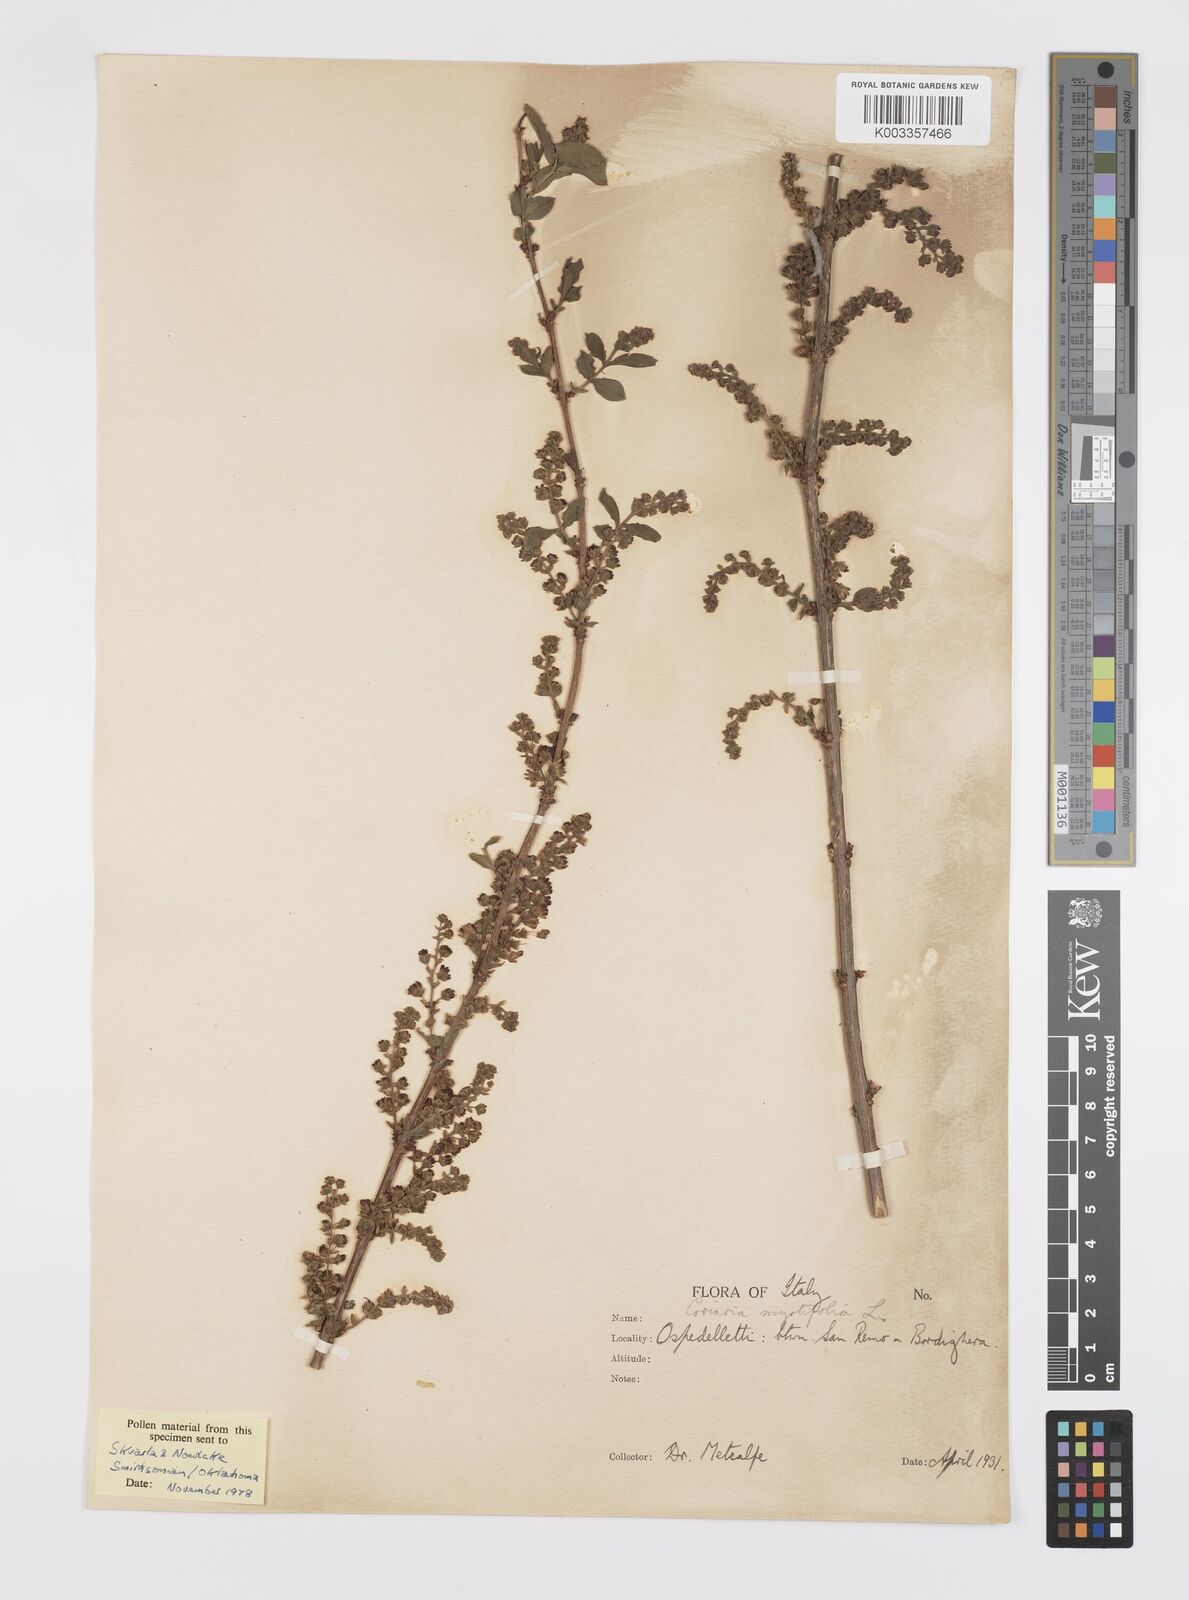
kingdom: Plantae
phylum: Tracheophyta
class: Magnoliopsida
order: Cucurbitales
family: Coriariaceae
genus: Coriaria
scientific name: Coriaria myrtifolia
